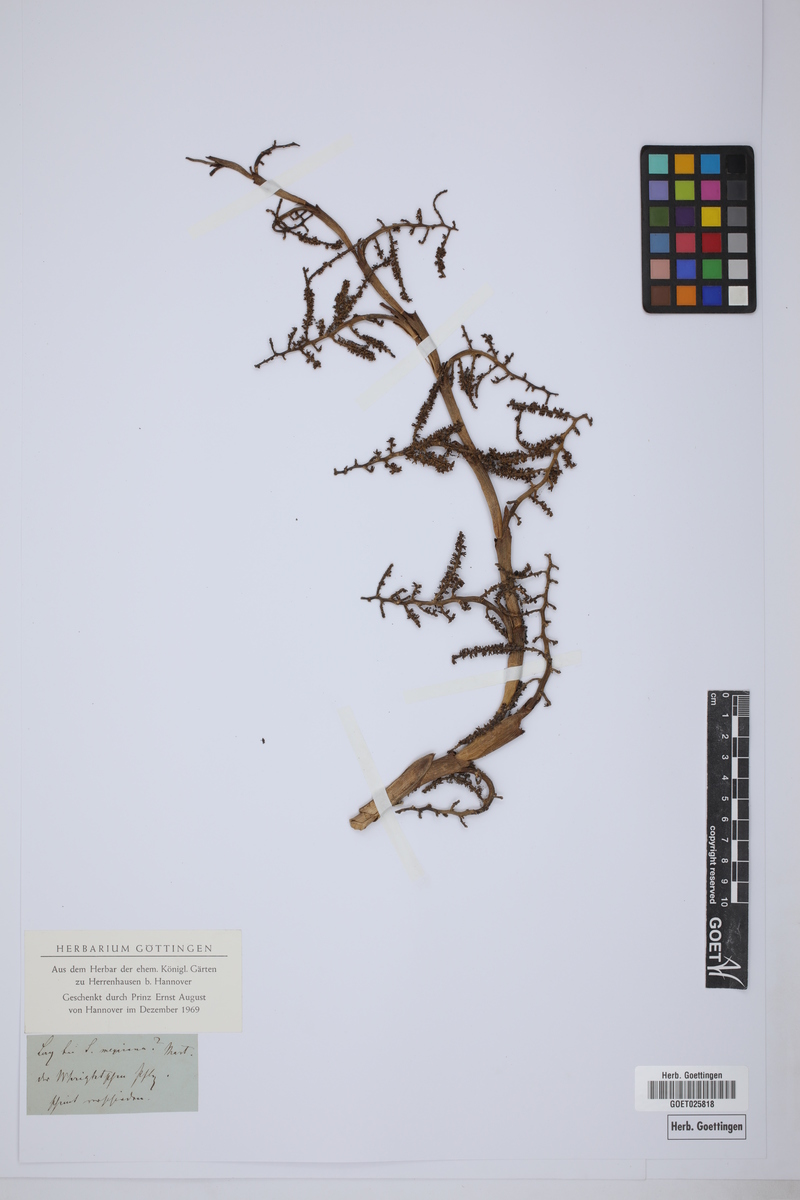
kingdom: Plantae
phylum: Tracheophyta
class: Liliopsida
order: Arecales
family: Arecaceae
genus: Sabal
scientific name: Sabal mexicana
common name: Texas palmetto
